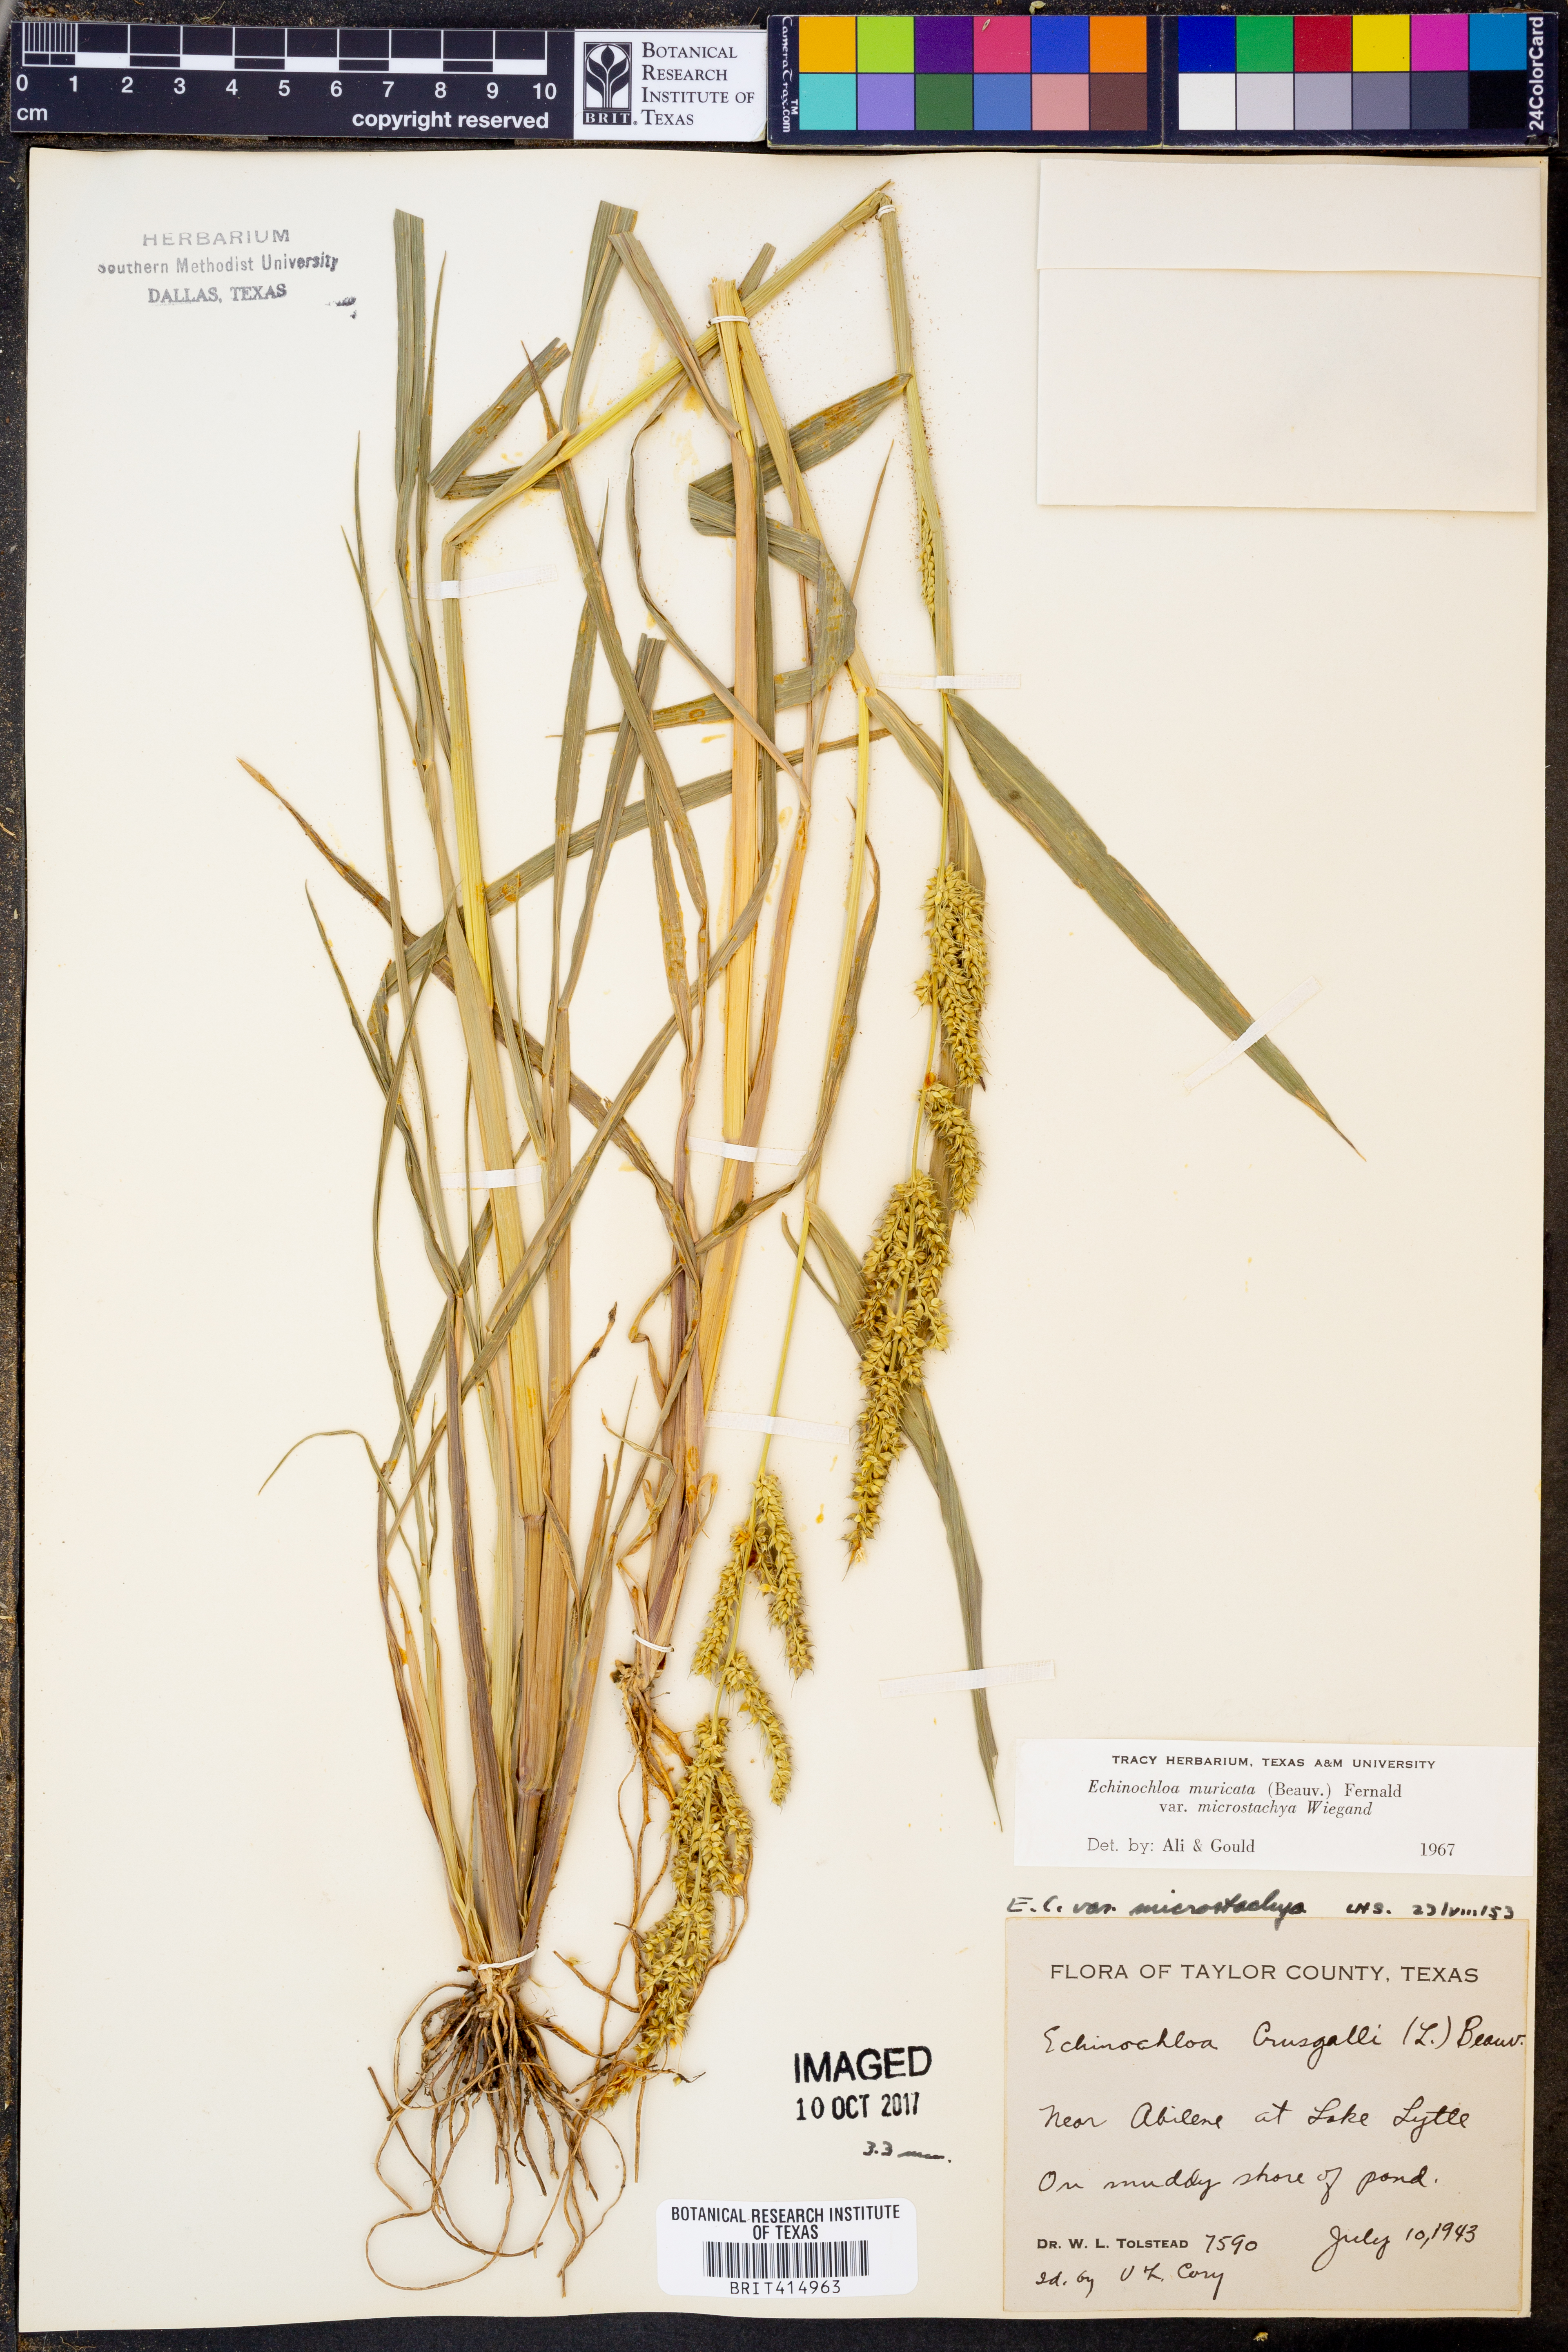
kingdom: Plantae
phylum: Tracheophyta
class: Liliopsida
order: Poales
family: Poaceae
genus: Echinochloa
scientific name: Echinochloa muricata
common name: American barnyard grass
